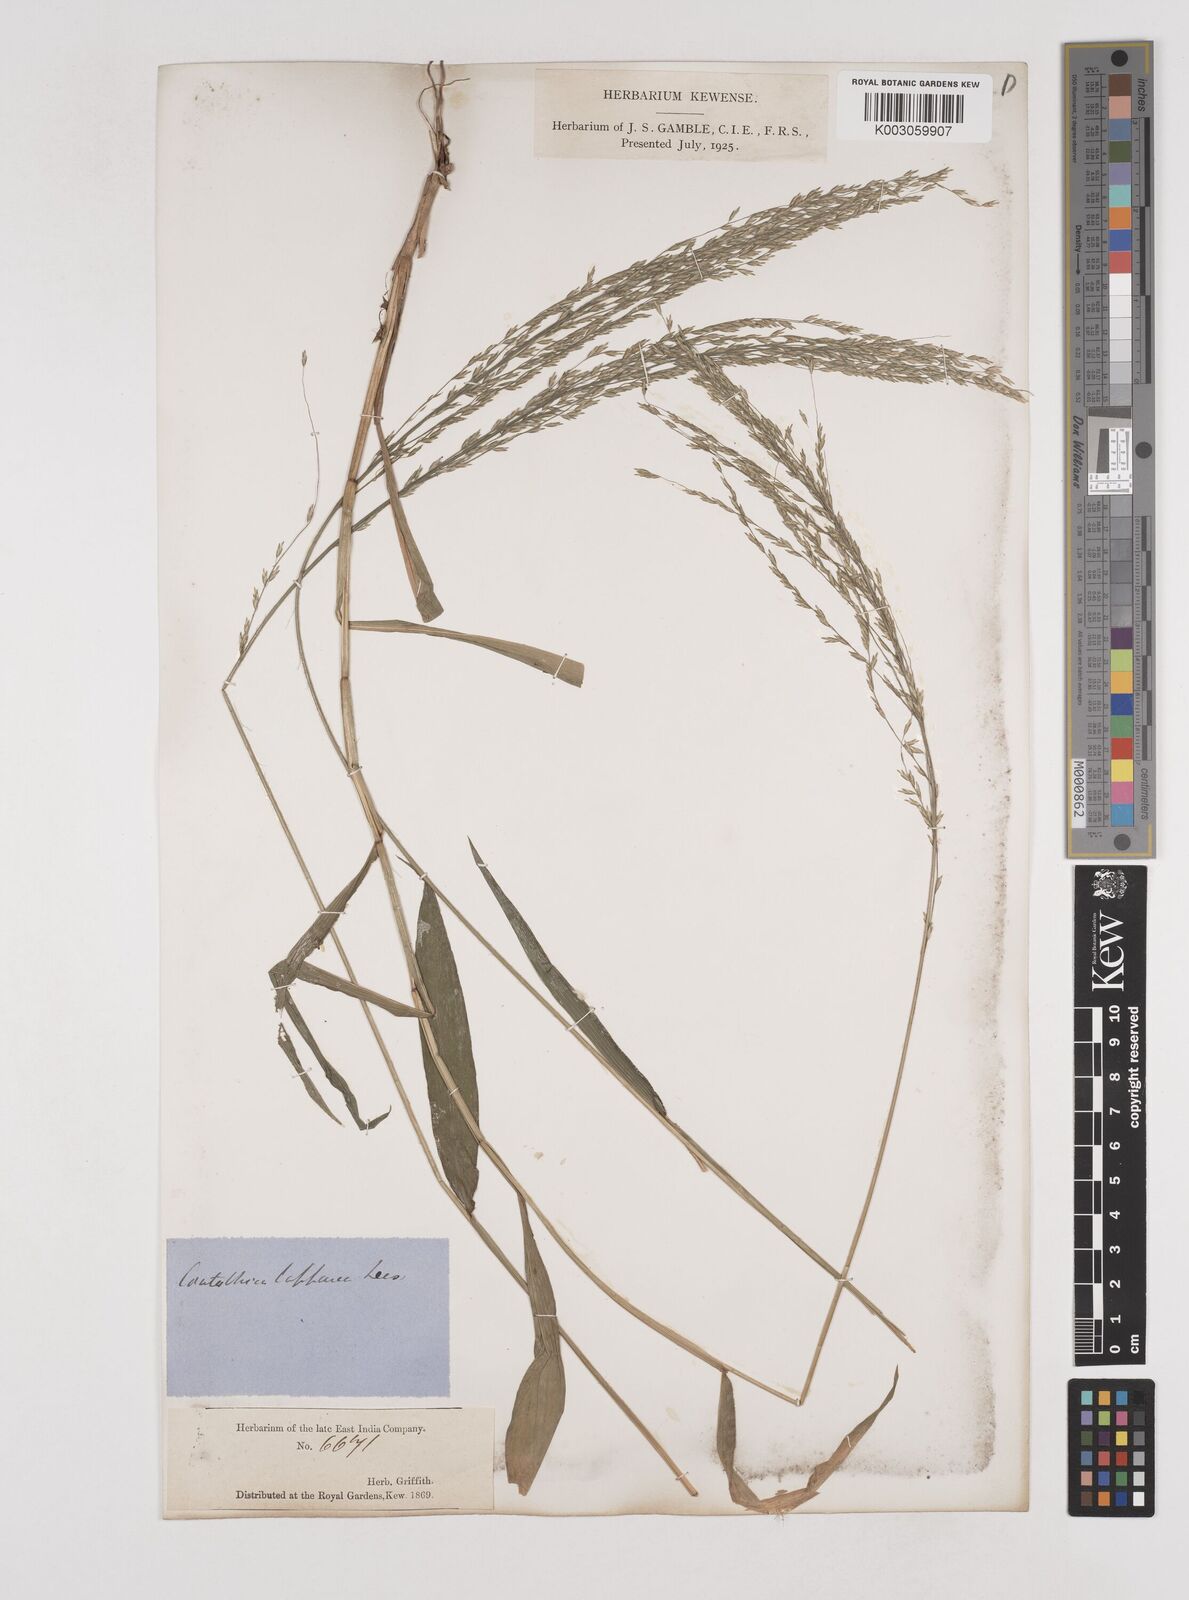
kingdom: Plantae
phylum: Tracheophyta
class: Liliopsida
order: Poales
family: Poaceae
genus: Centotheca
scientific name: Centotheca lappacea
